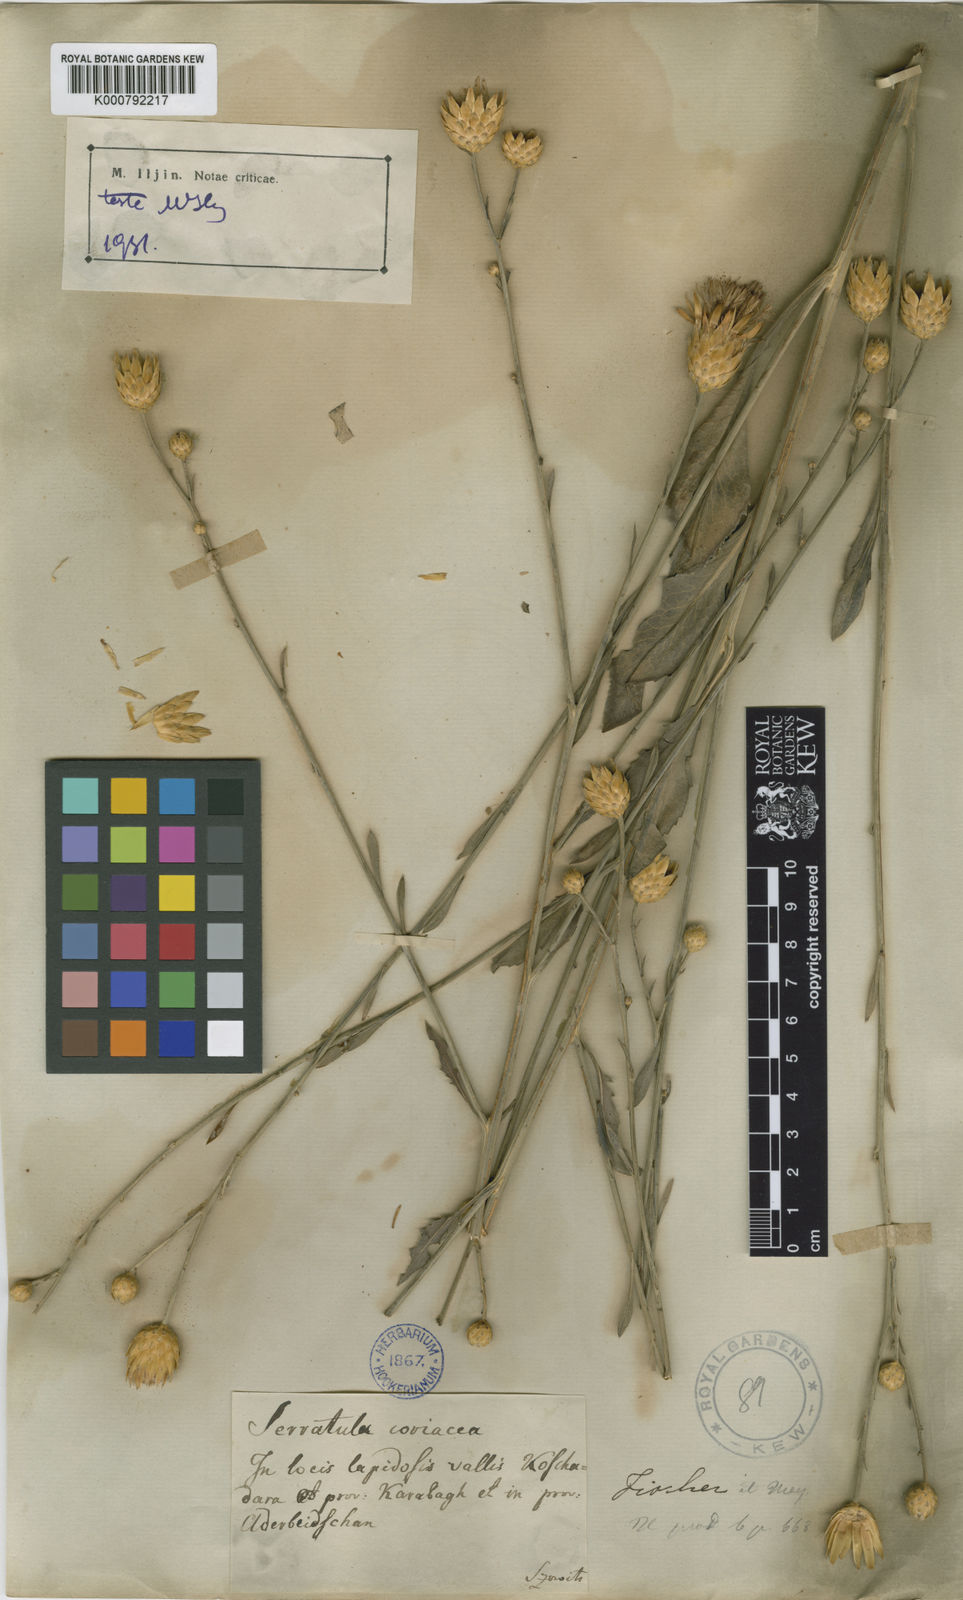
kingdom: Plantae
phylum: Tracheophyta
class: Magnoliopsida
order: Asterales
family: Asteraceae
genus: Serratula
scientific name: Serratula
